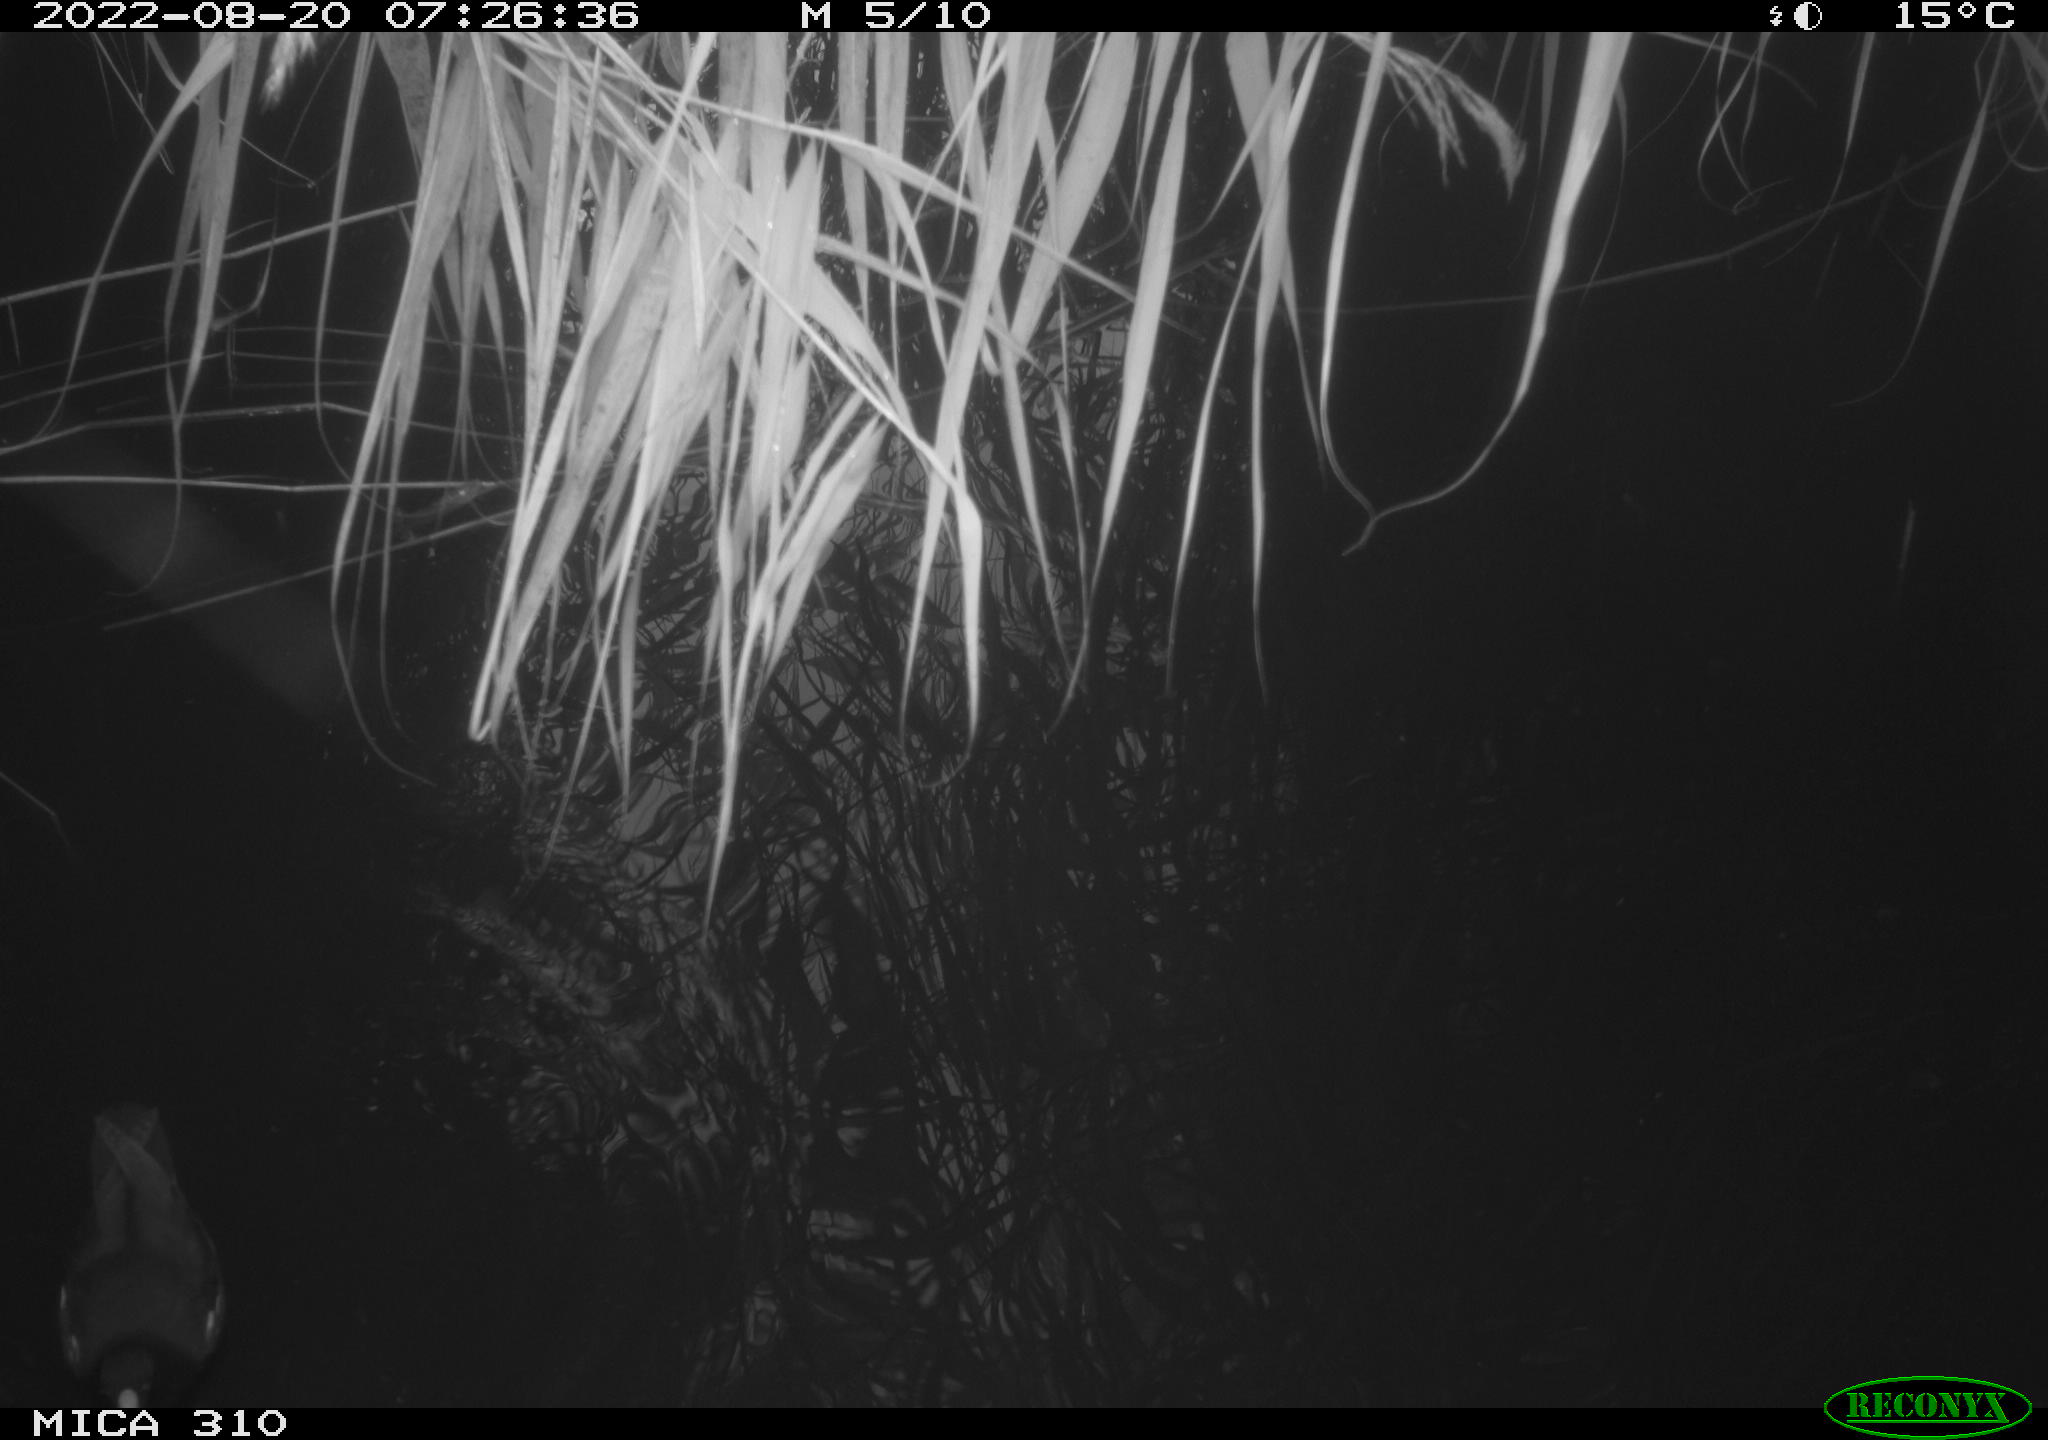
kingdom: Animalia
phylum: Chordata
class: Aves
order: Gruiformes
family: Rallidae
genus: Gallinula
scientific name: Gallinula chloropus
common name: Common moorhen
